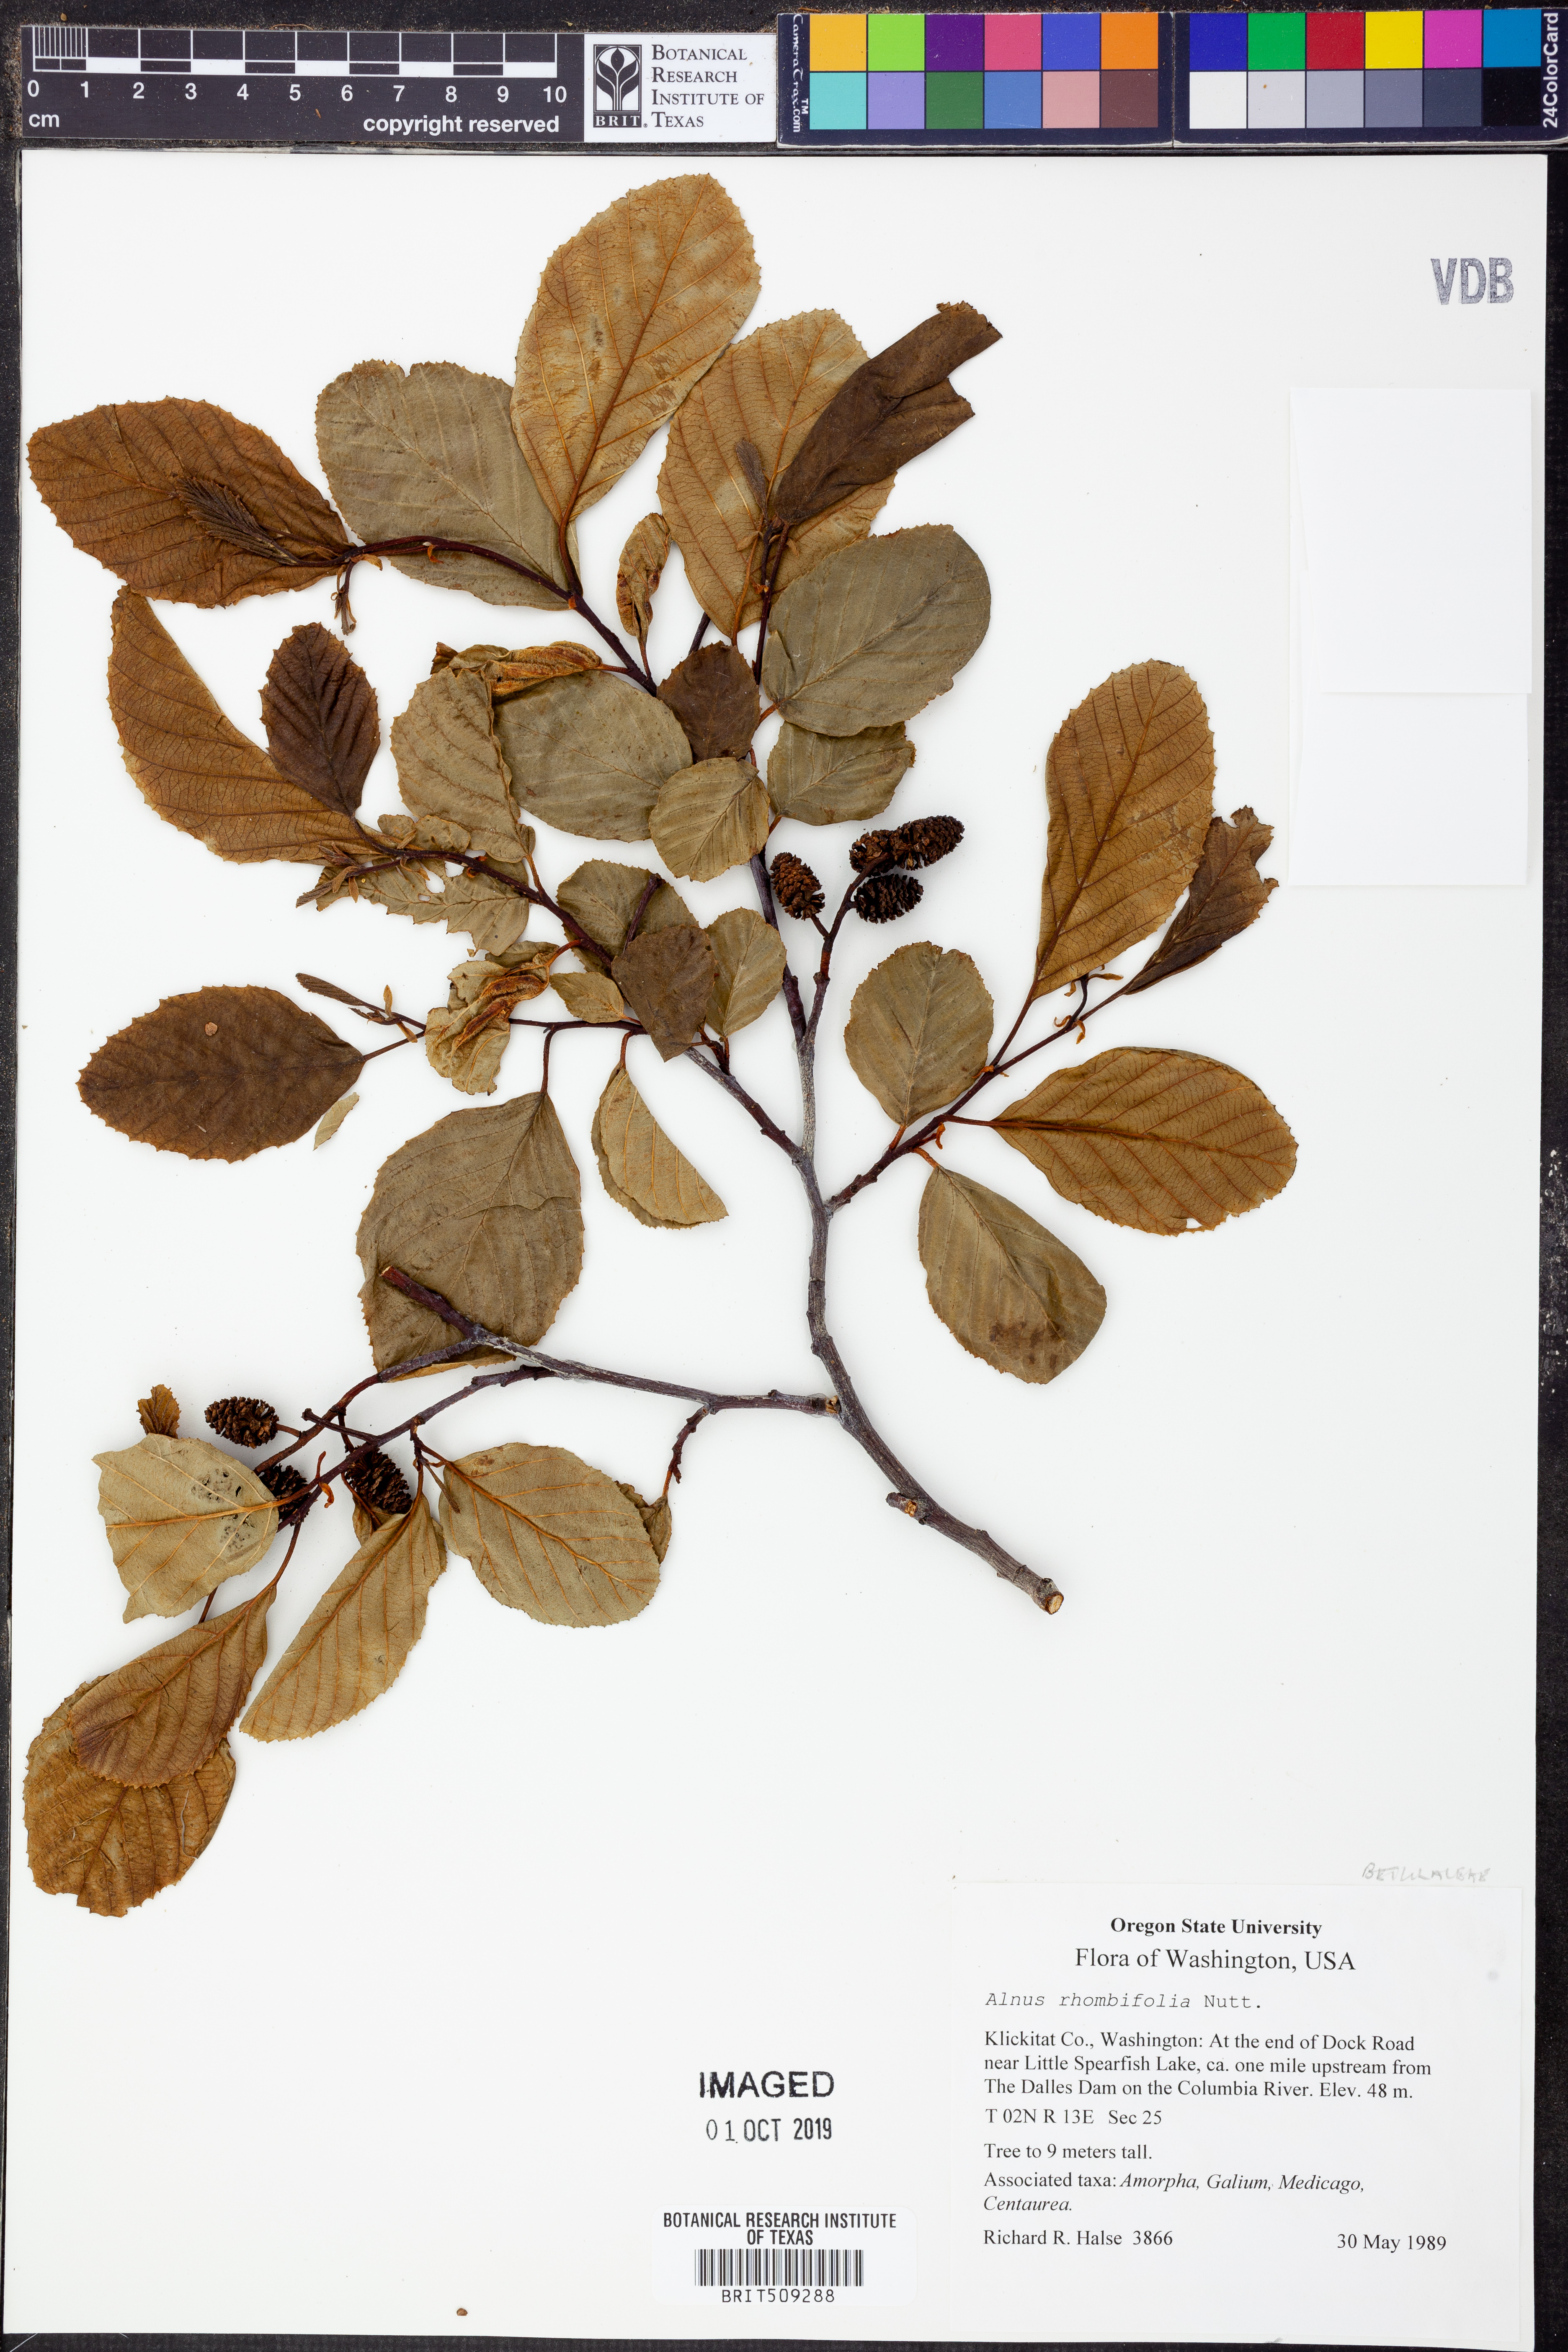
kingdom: Plantae
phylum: Tracheophyta
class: Magnoliopsida
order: Fagales
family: Betulaceae
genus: Alnus
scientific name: Alnus rhombifolia
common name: California alder
